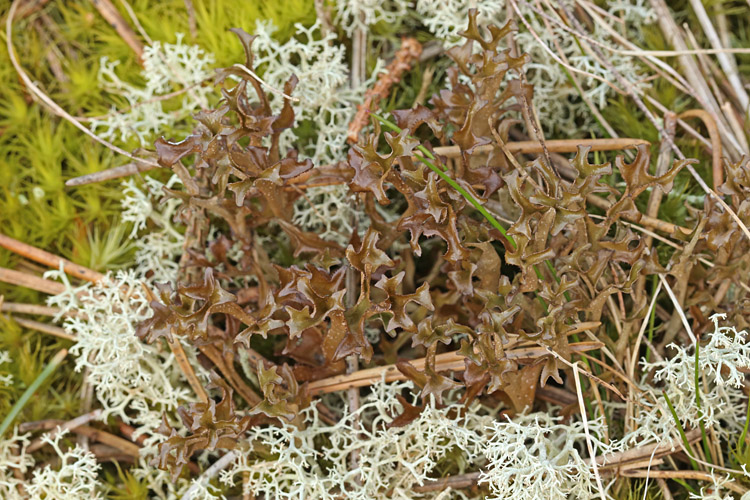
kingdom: Fungi
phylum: Ascomycota
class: Lecanoromycetes
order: Lecanorales
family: Parmeliaceae
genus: Cetraria
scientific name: Cetraria islandica
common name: islandsk kruslav
